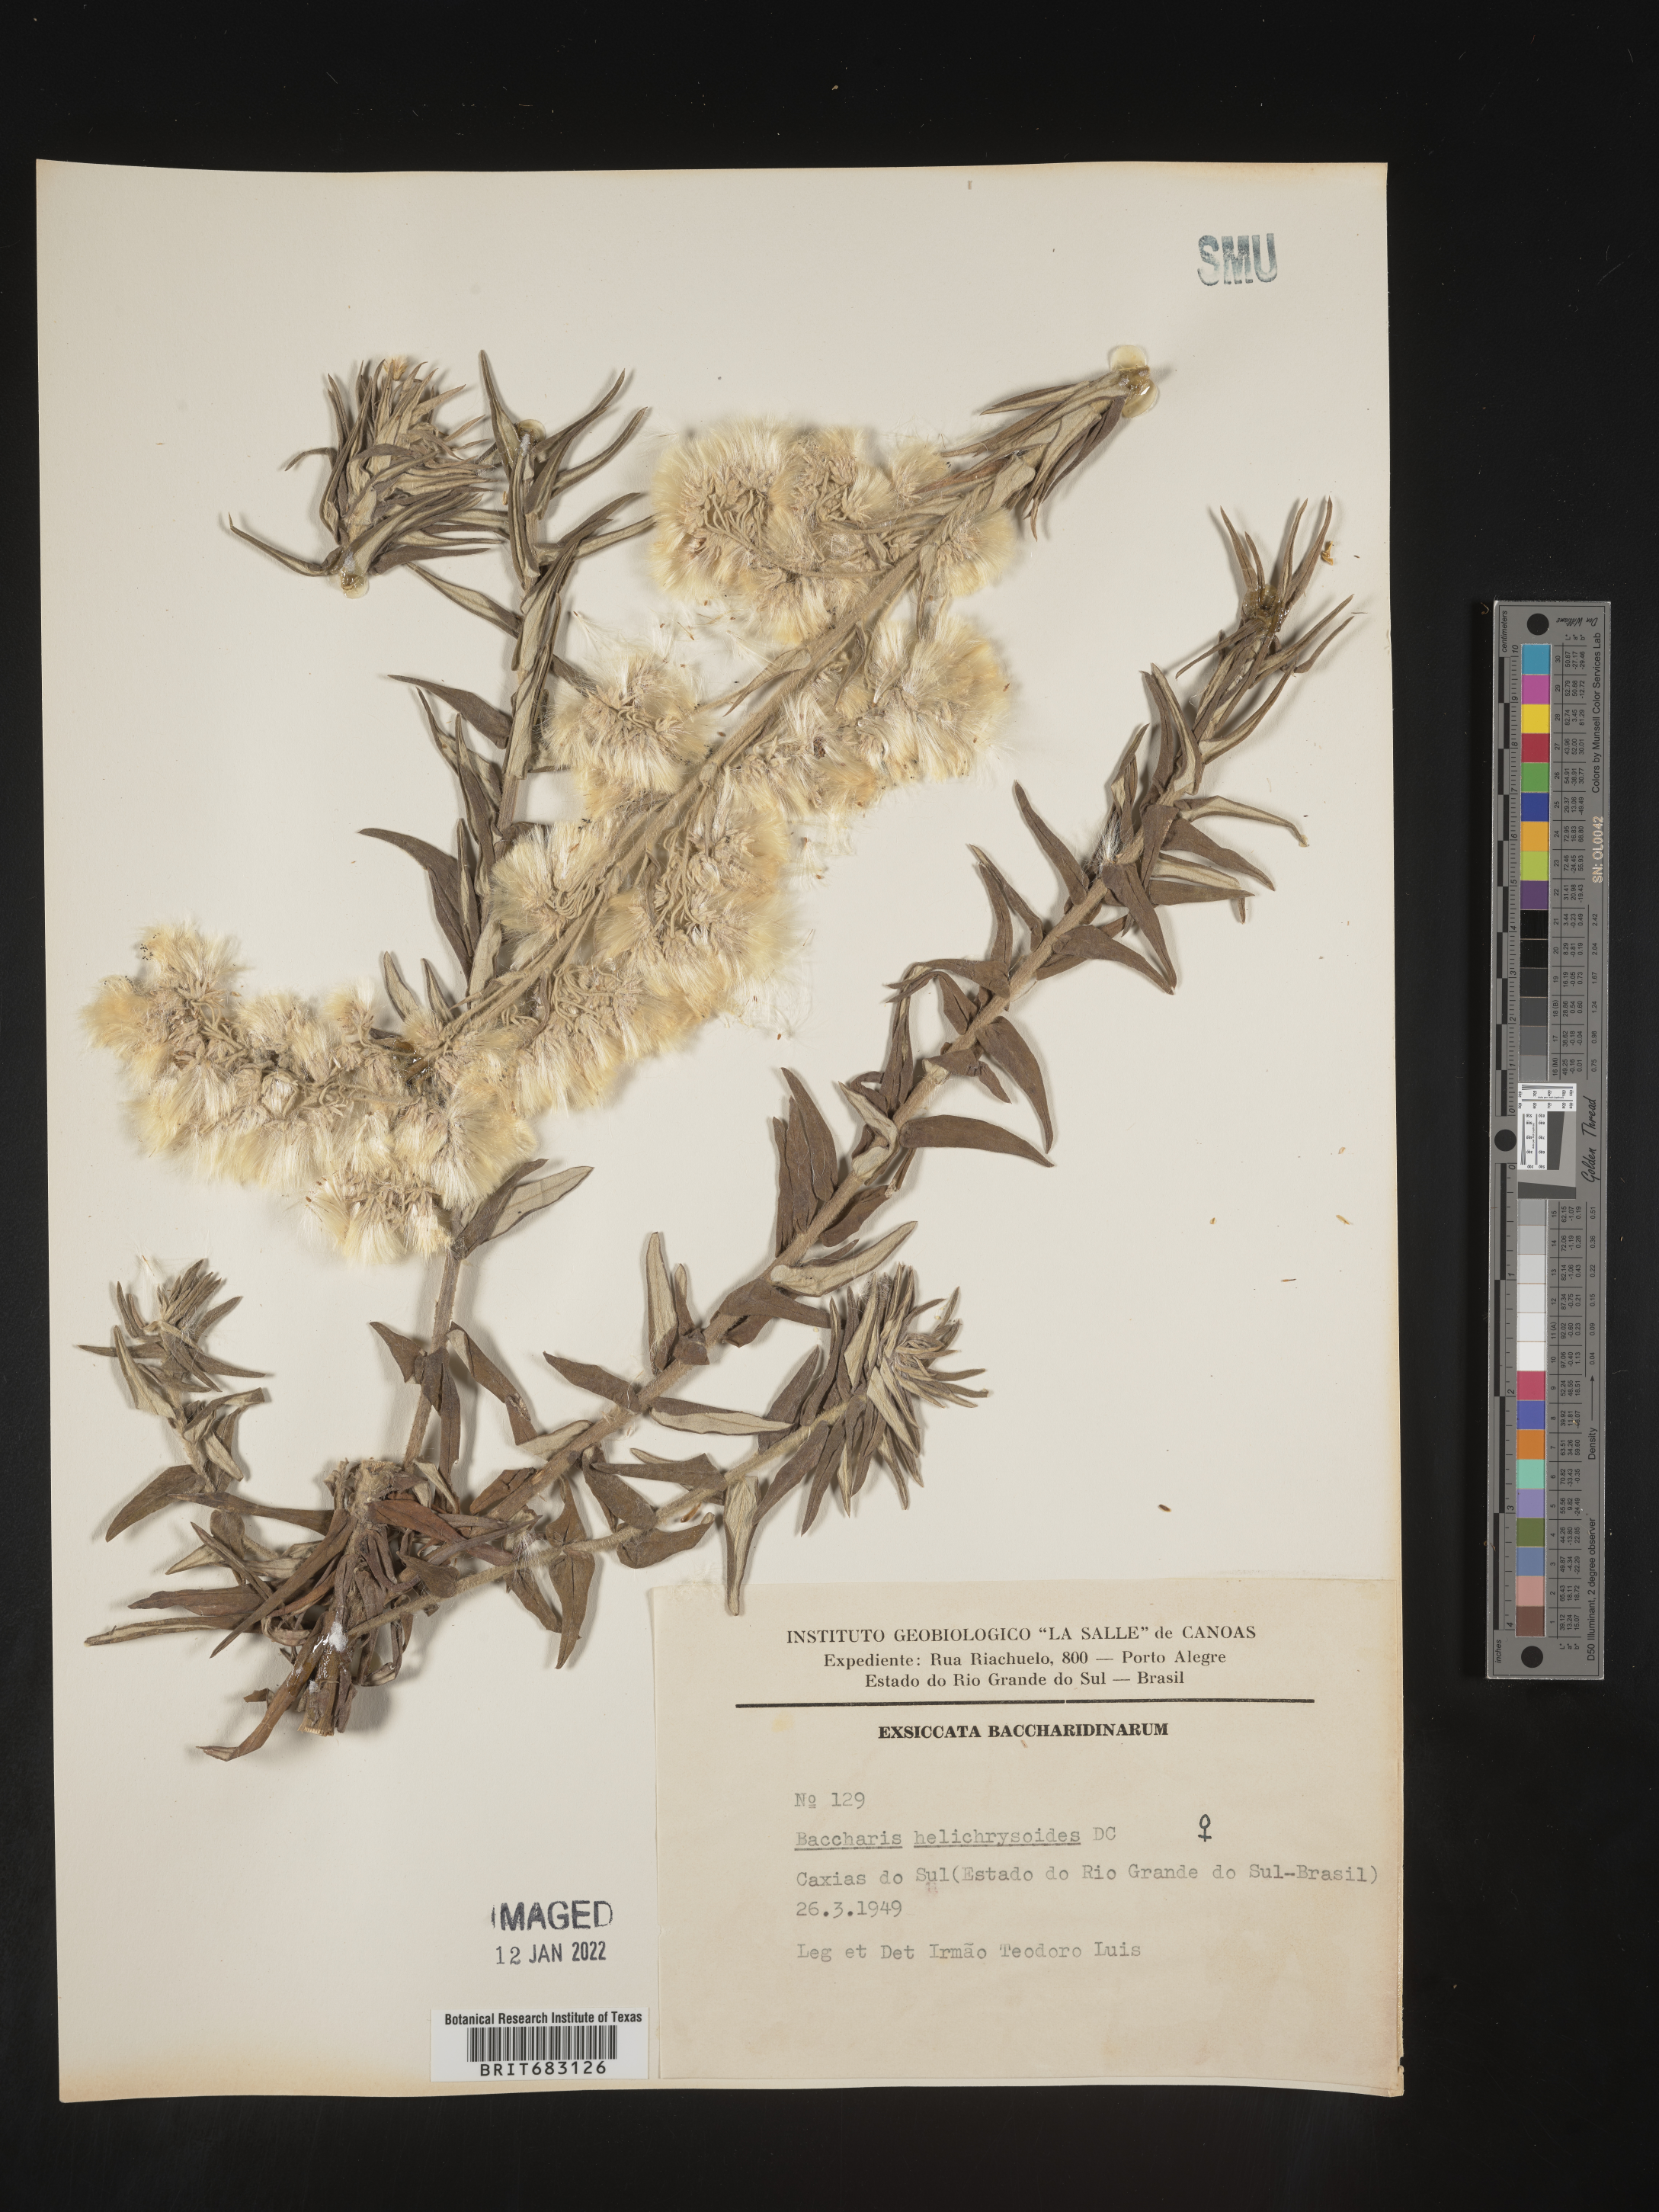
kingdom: Plantae
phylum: Tracheophyta
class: Magnoliopsida
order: Asterales
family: Asteraceae
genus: Baccharis
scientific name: Baccharis
